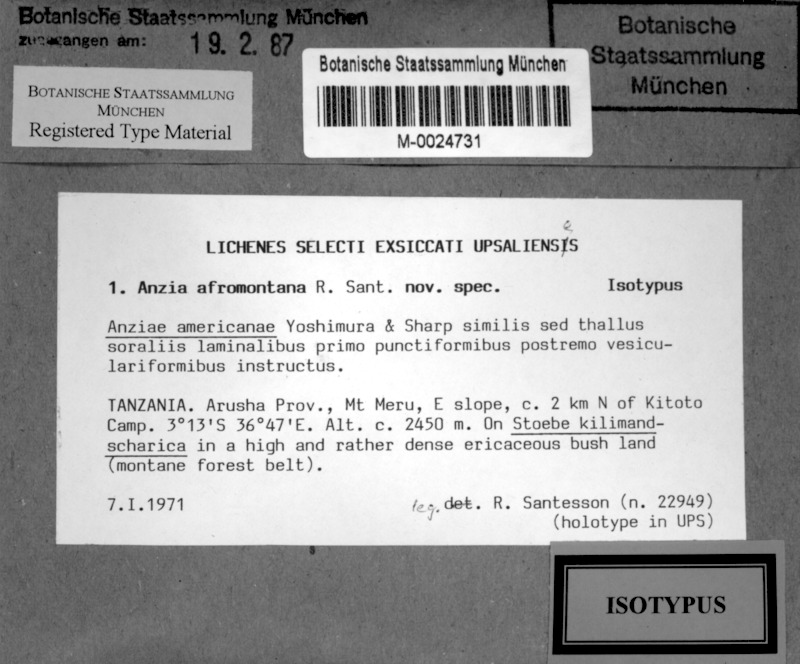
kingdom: Fungi
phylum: Ascomycota
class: Lecanoromycetes
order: Lecanorales
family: Parmeliaceae
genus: Anzia
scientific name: Anzia afromontana
